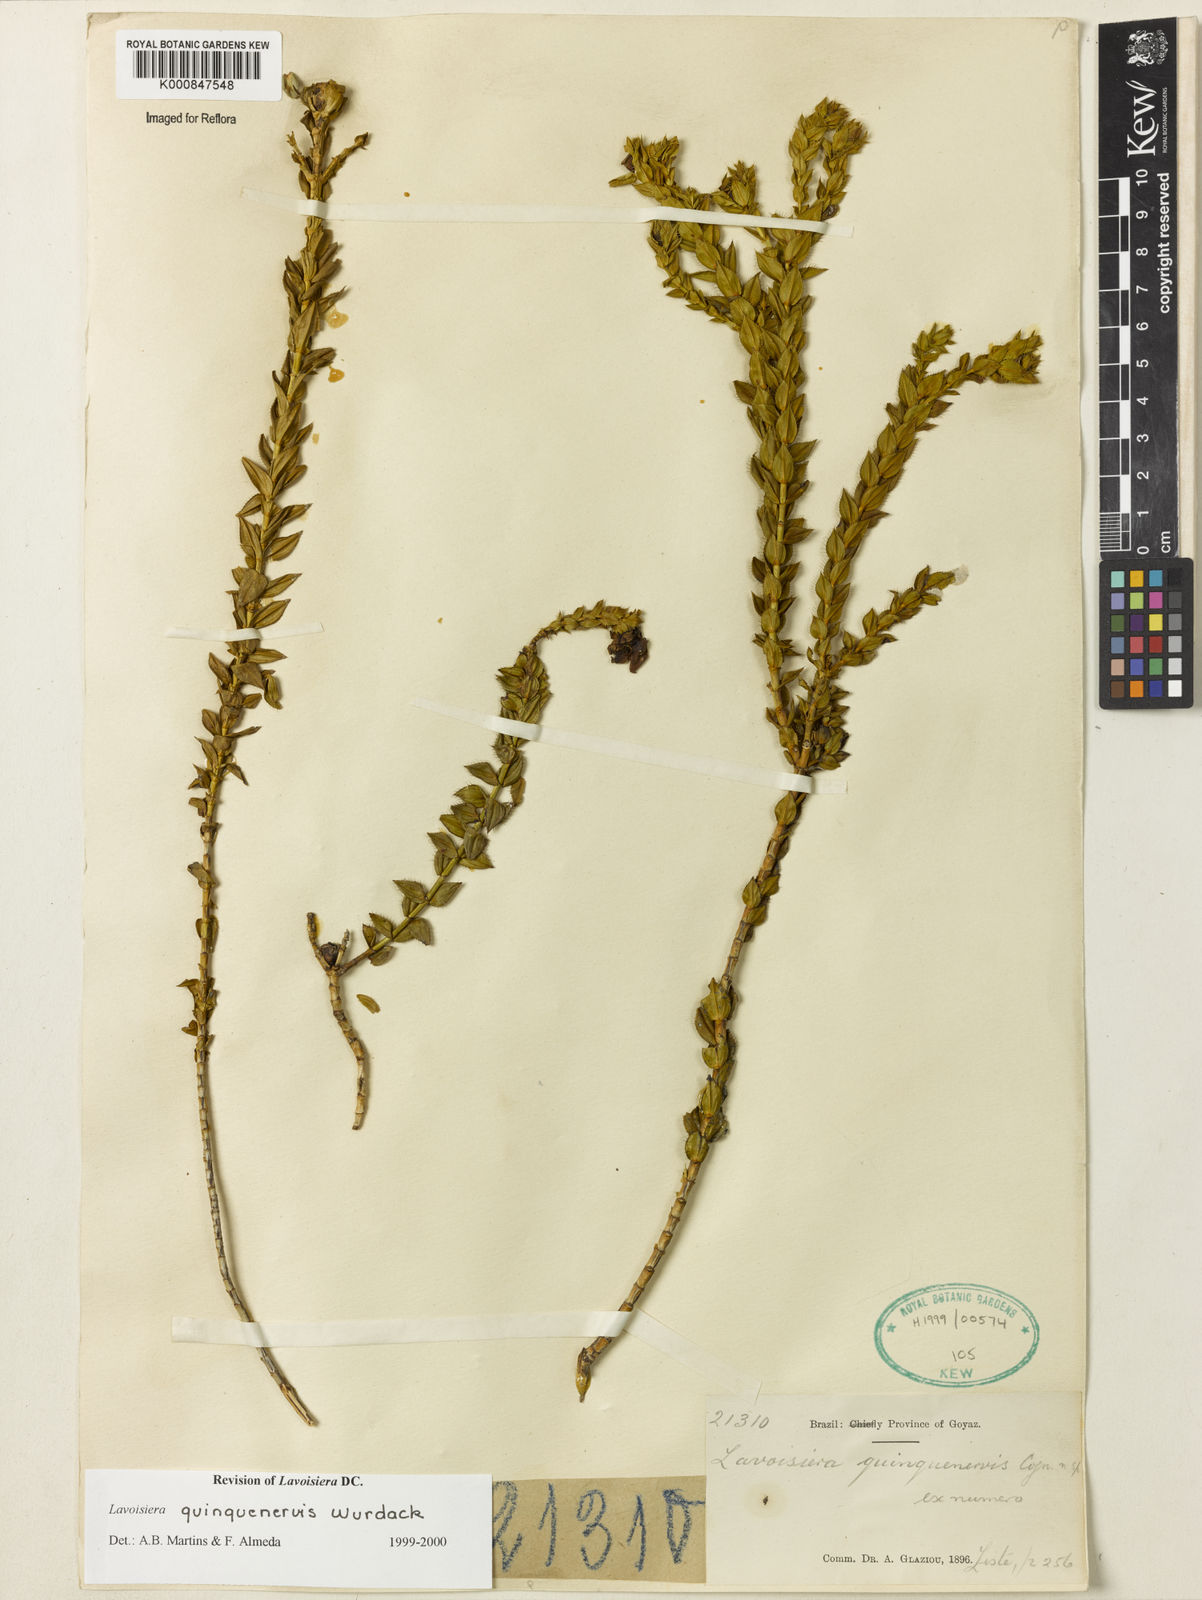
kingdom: Plantae
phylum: Tracheophyta
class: Magnoliopsida
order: Myrtales
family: Melastomataceae
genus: Microlicia
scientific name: Microlicia quinquenervis
